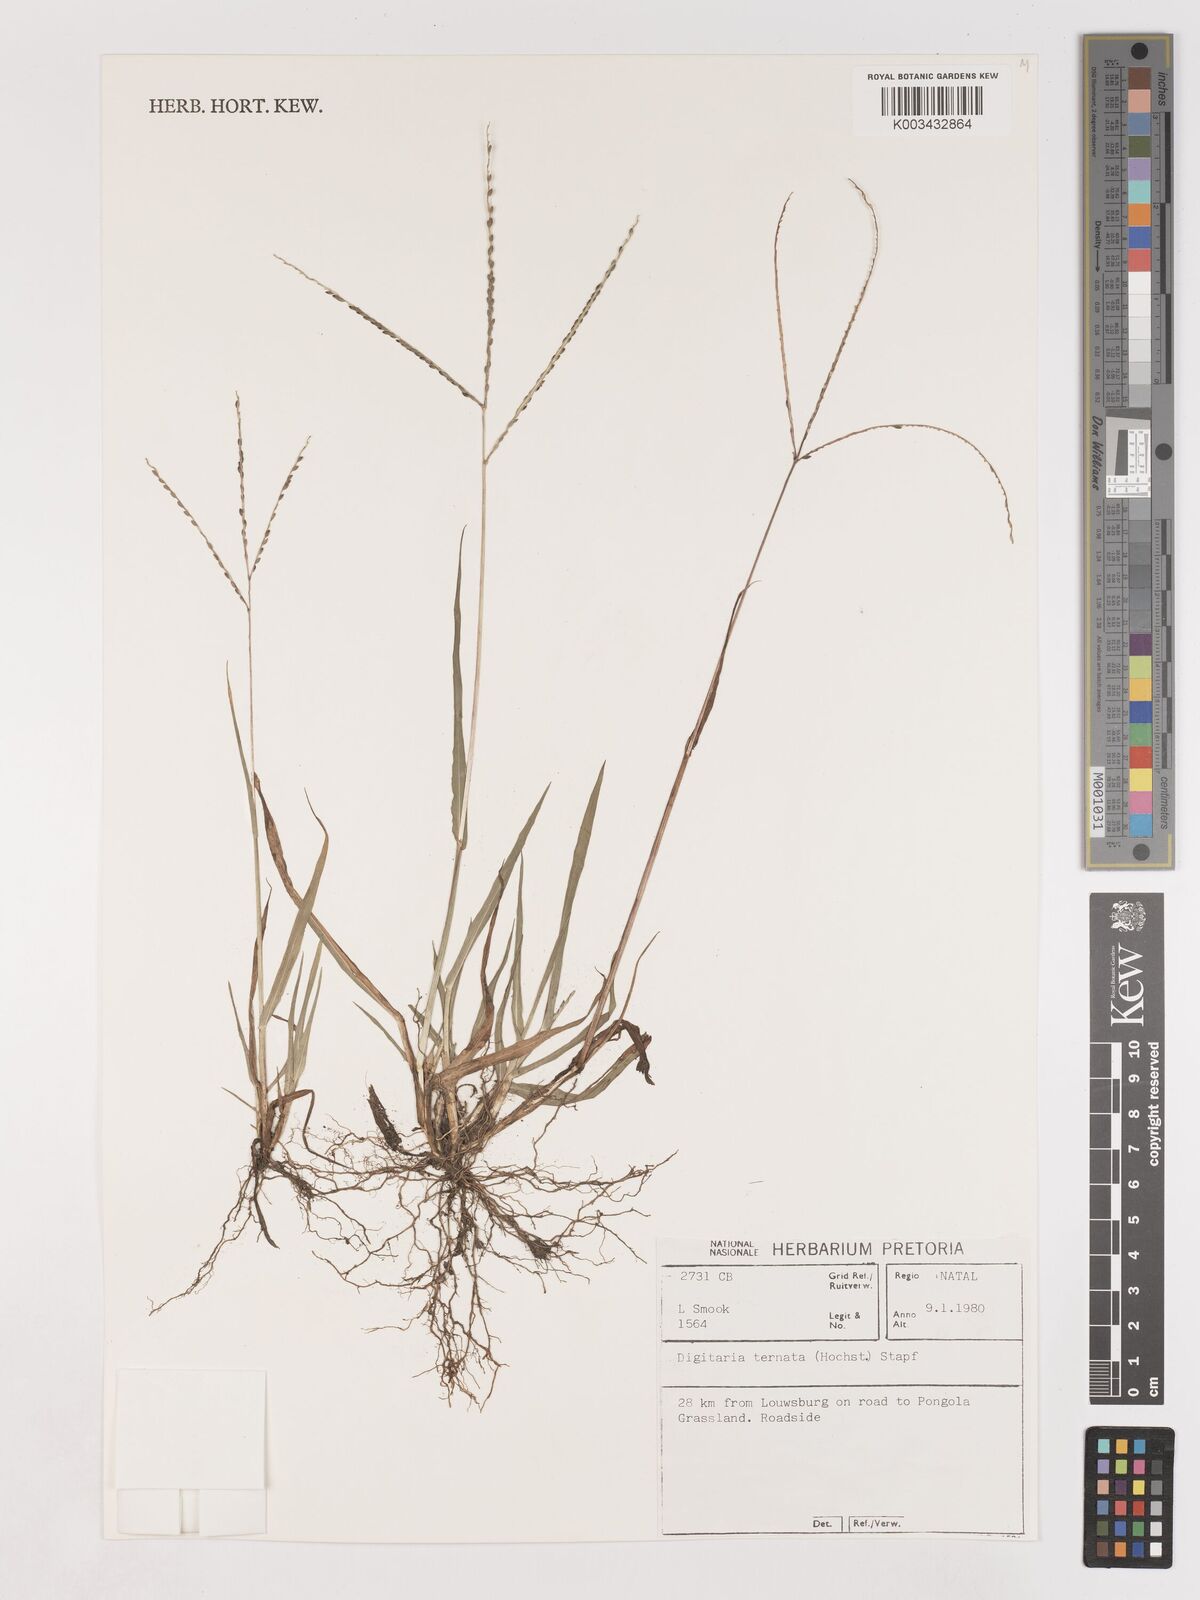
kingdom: Plantae
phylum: Tracheophyta
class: Liliopsida
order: Poales
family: Poaceae
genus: Digitaria
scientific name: Digitaria ternata
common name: Blackseed crabgrass
